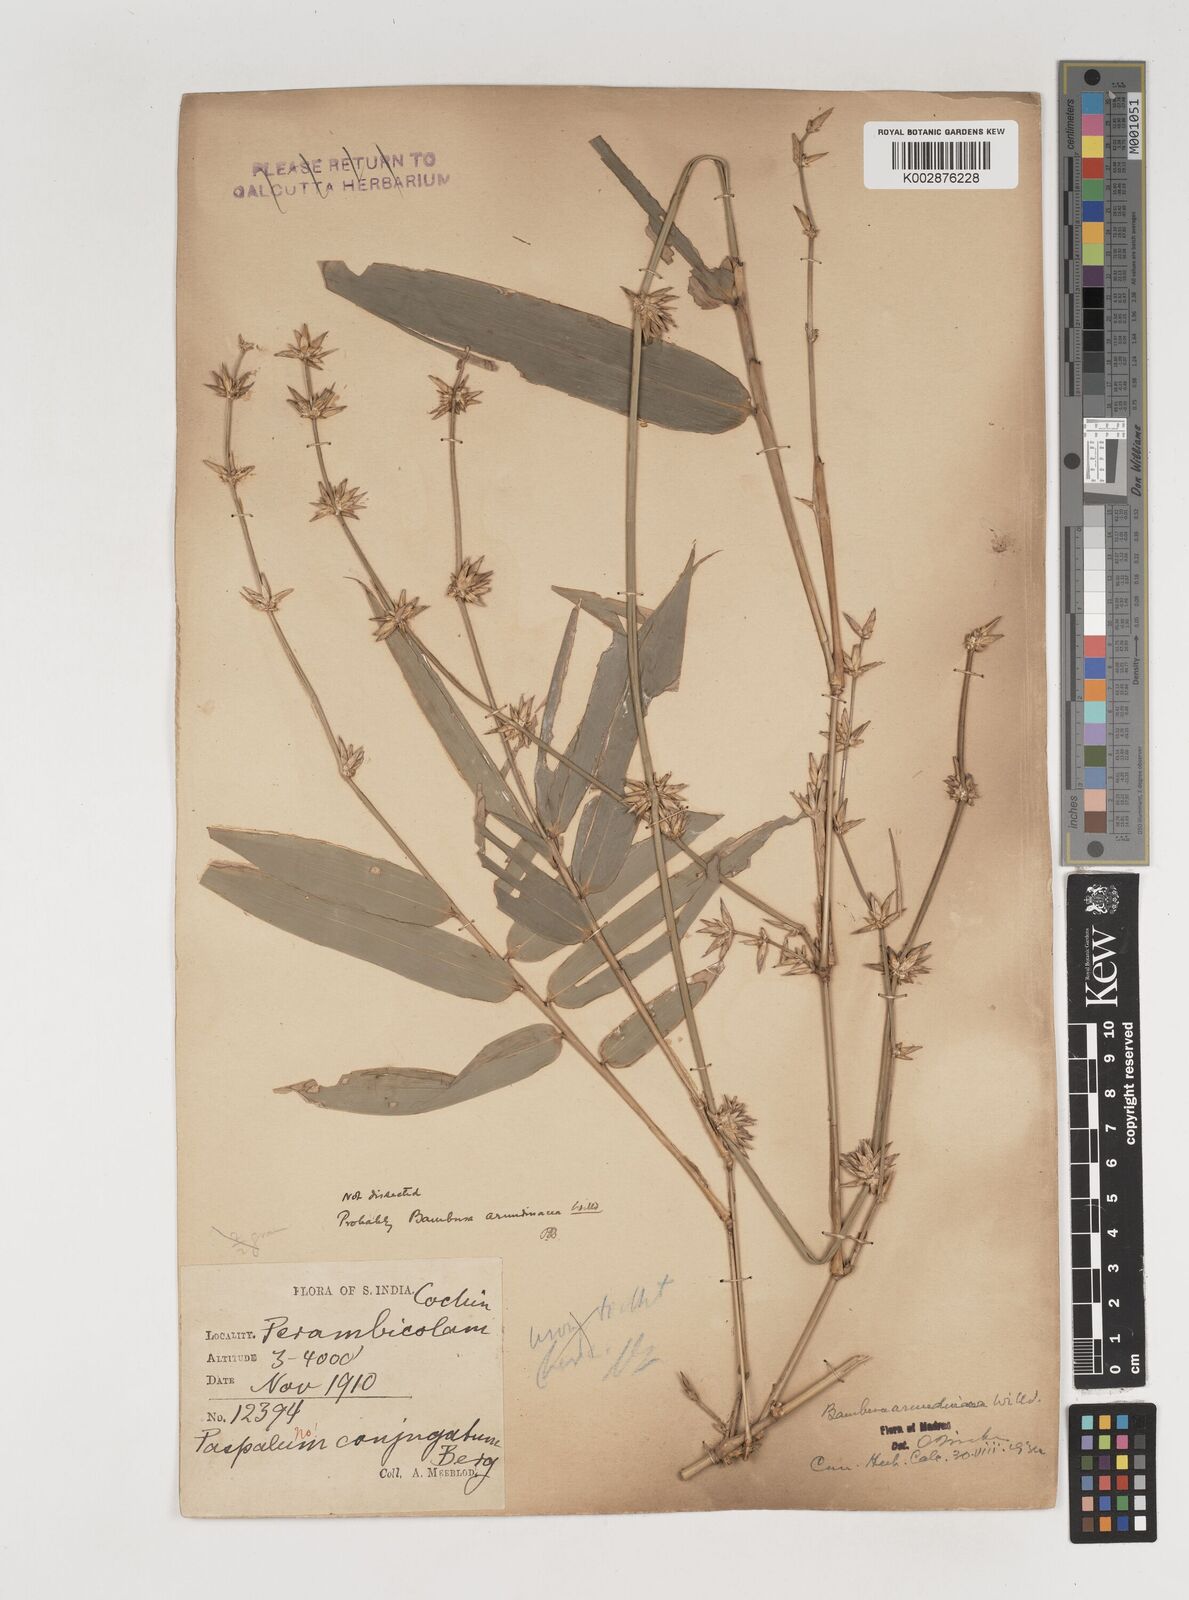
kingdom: Plantae
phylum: Tracheophyta
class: Liliopsida
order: Poales
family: Poaceae
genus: Bambusa
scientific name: Bambusa bambos
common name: Indian thorny bamboo
